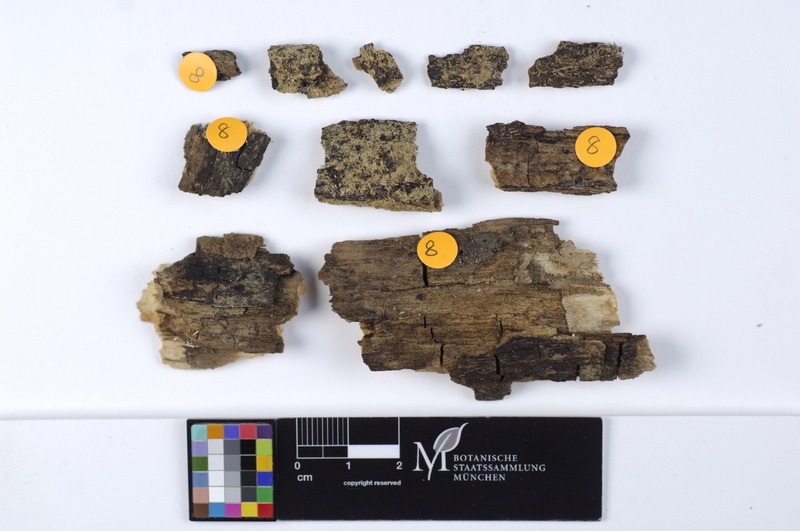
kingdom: Fungi
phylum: Basidiomycota
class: Agaricomycetes
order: Cantharellales
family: Botryobasidiaceae
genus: Botryobasidium
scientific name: Botryobasidium laeve
